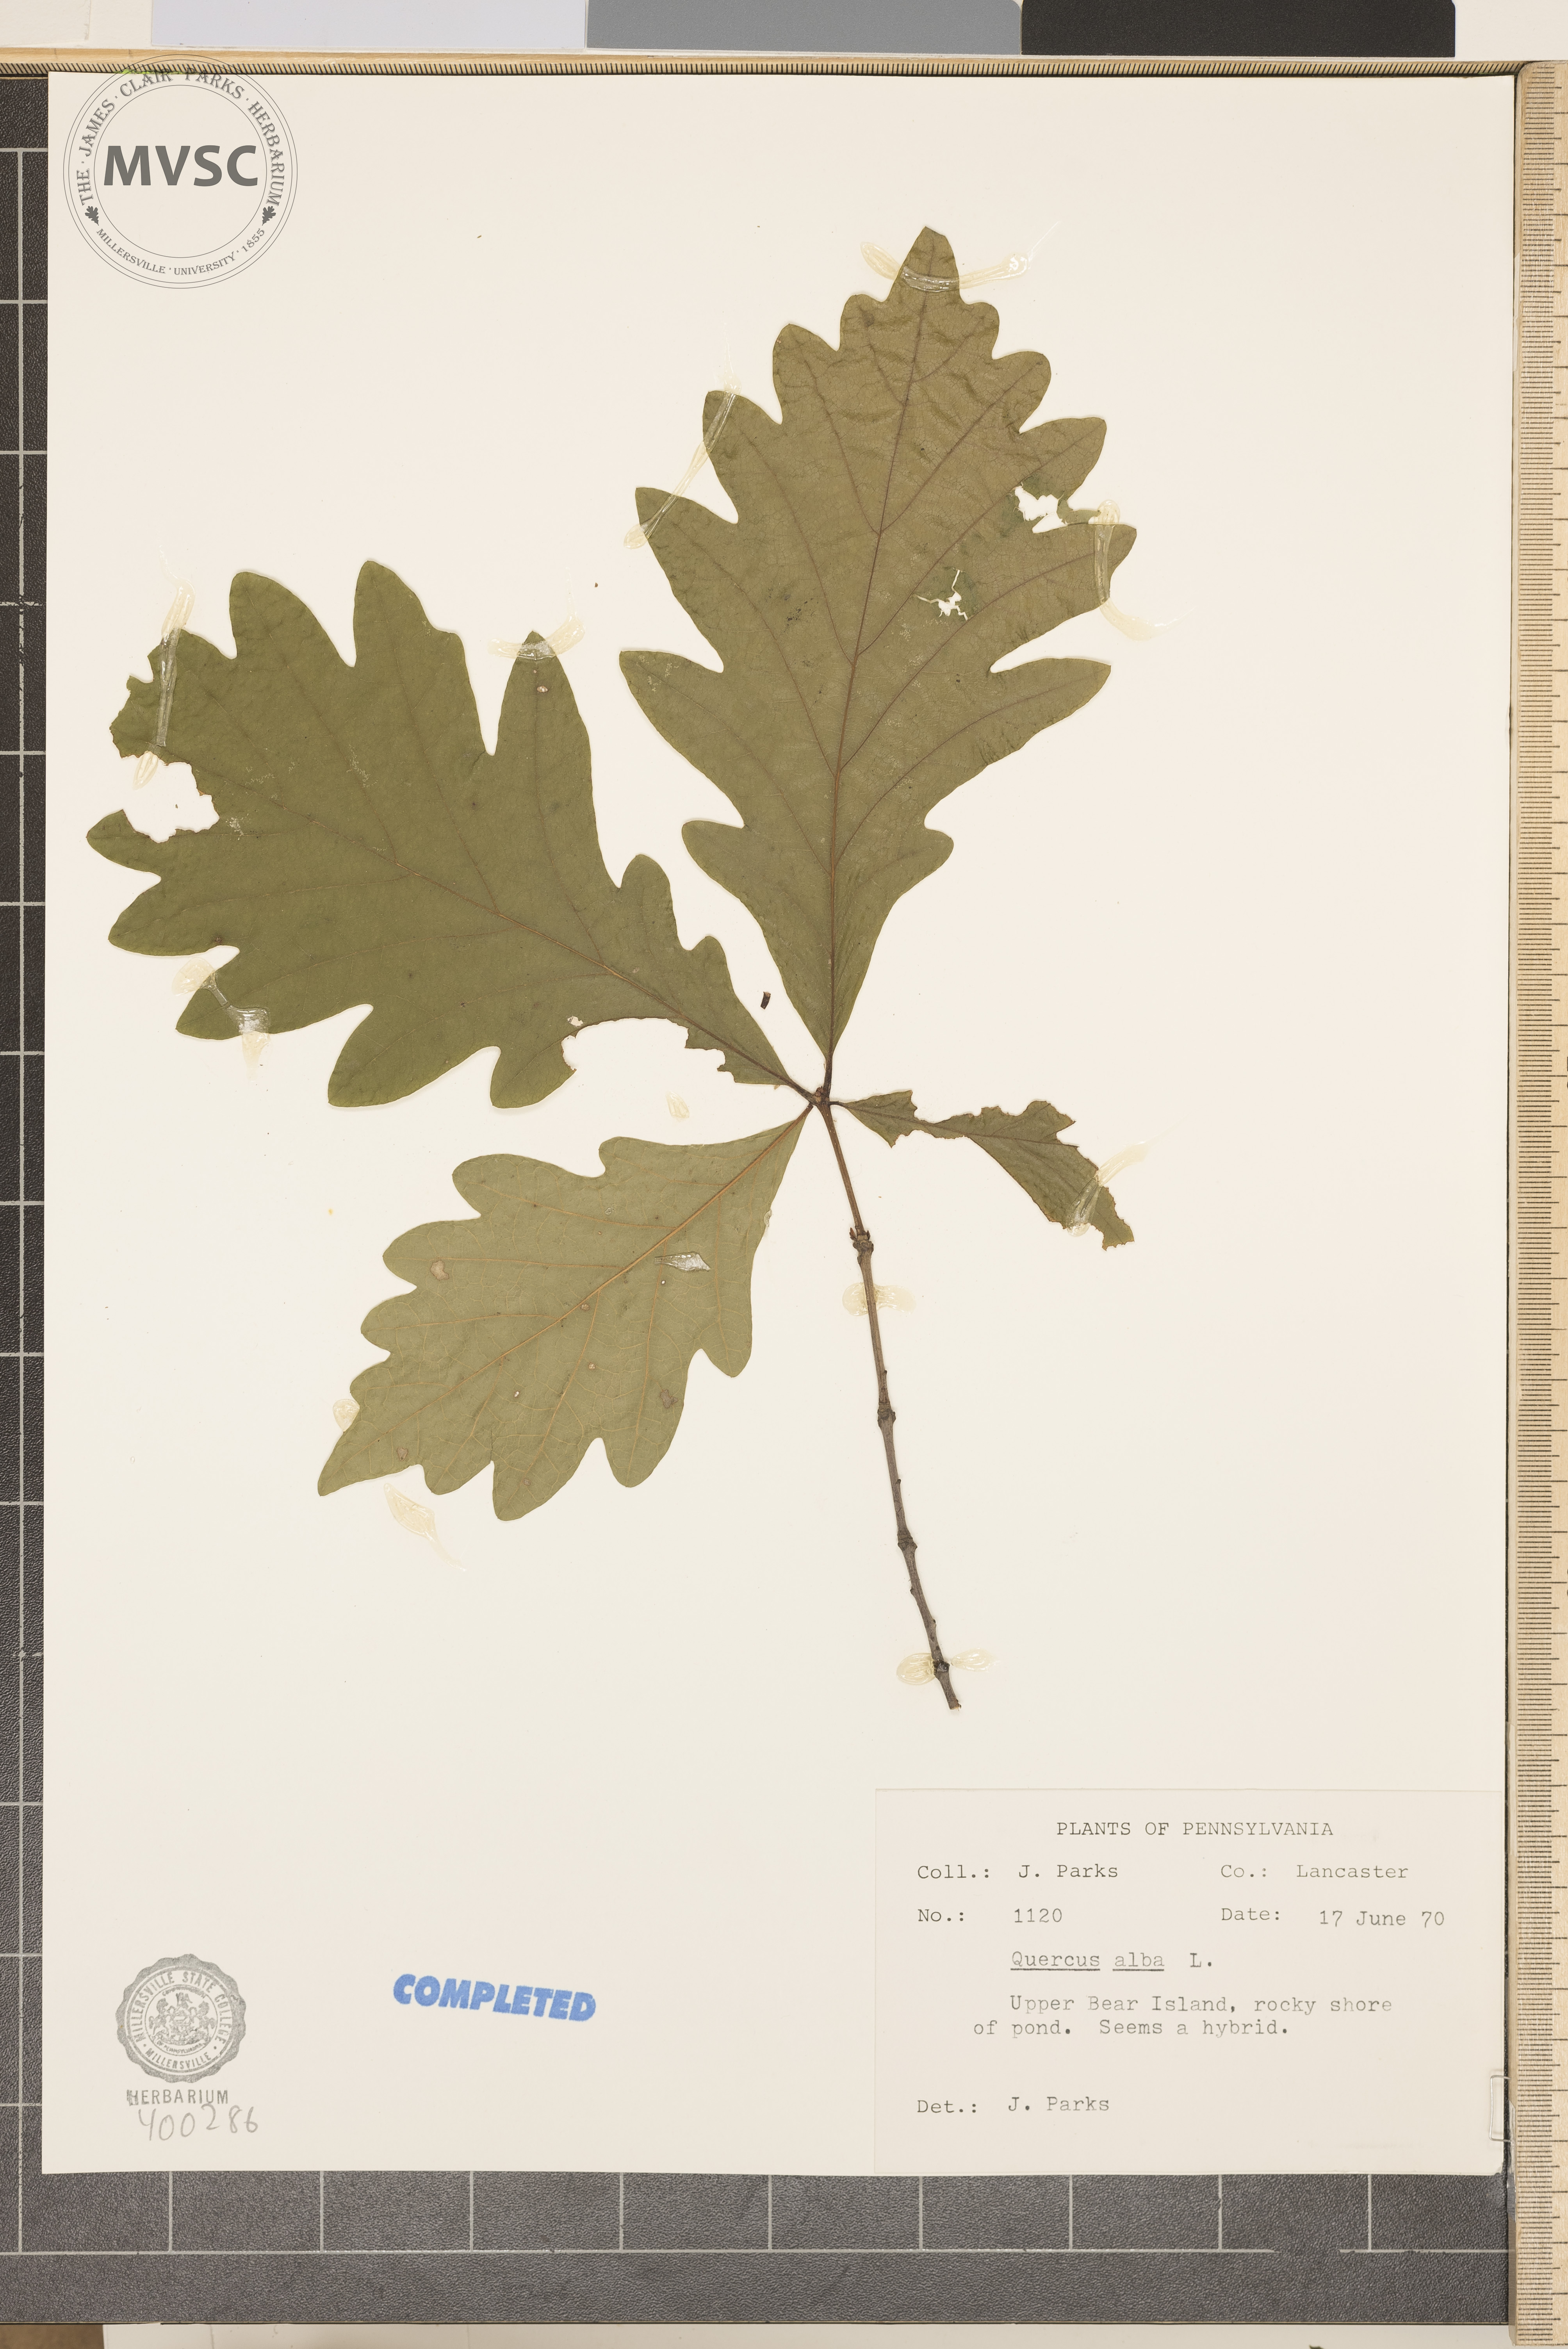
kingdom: Plantae
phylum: Tracheophyta
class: Magnoliopsida
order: Fagales
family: Fagaceae
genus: Quercus
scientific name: Quercus alba
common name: white oak
